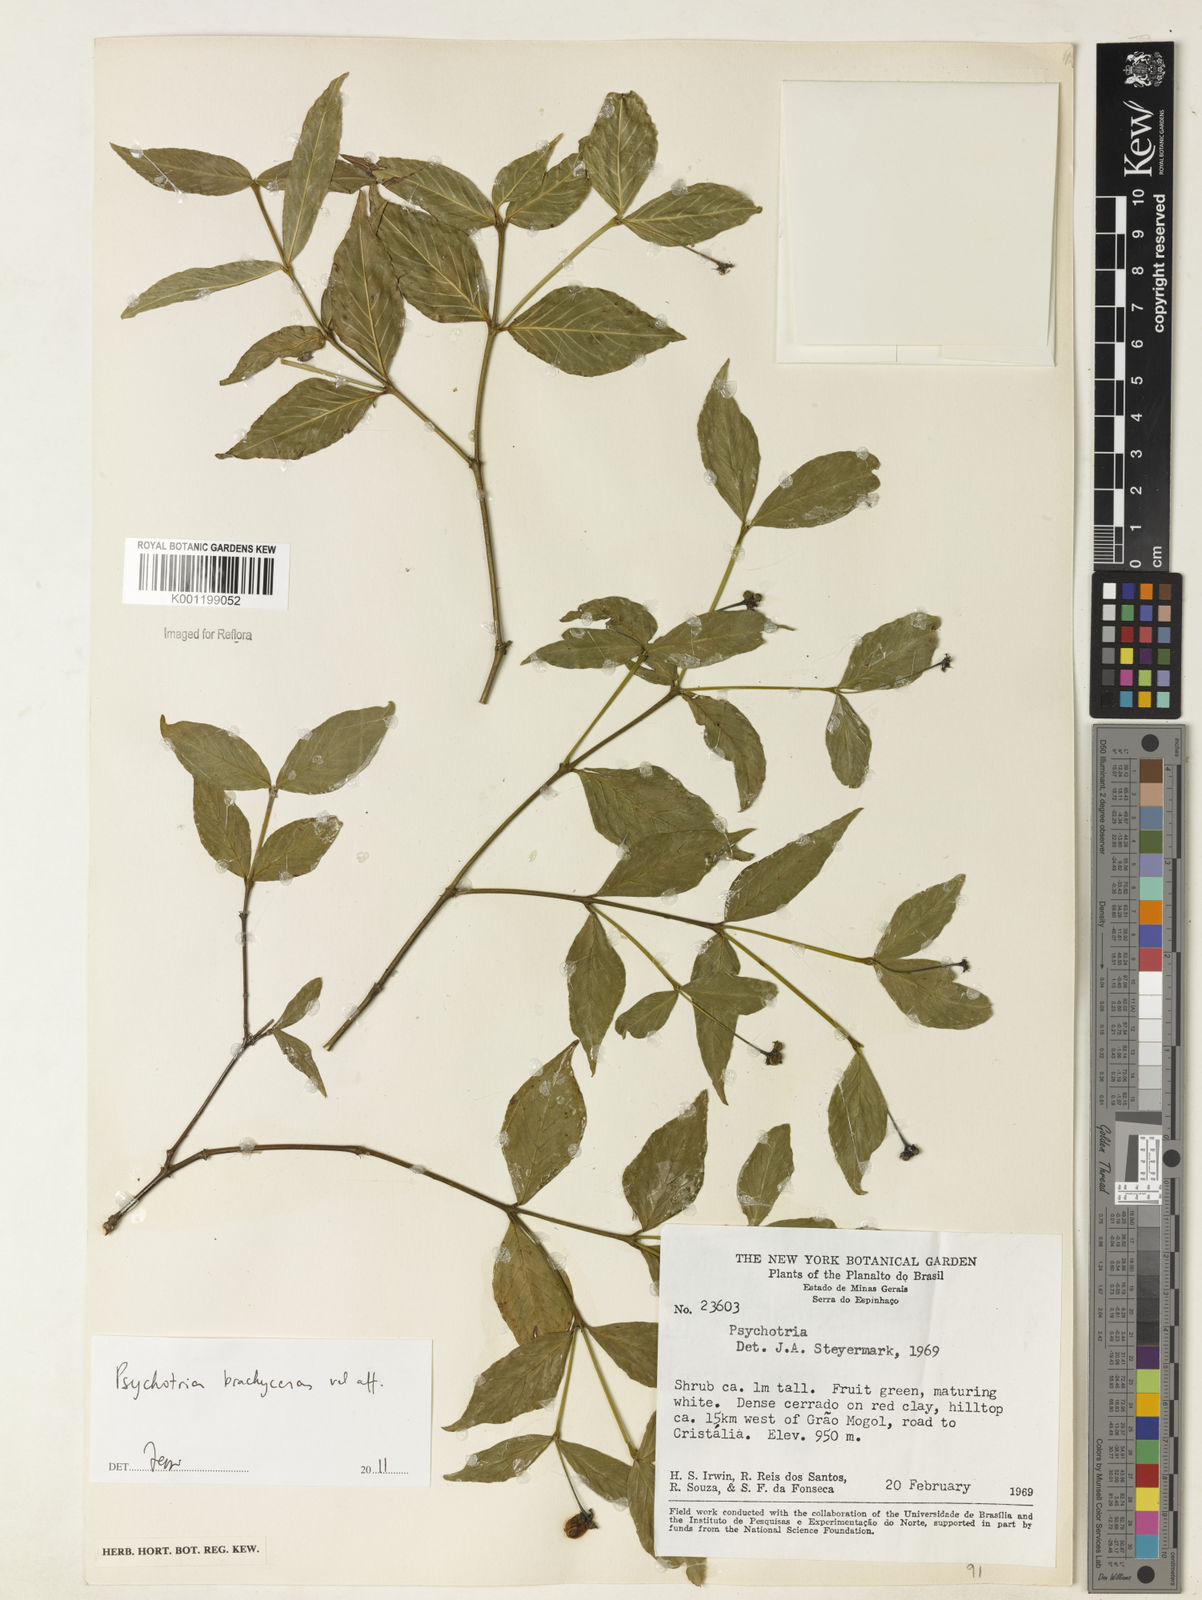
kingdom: Plantae
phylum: Tracheophyta
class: Magnoliopsida
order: Gentianales
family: Rubiaceae
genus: Psychotria
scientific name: Psychotria
